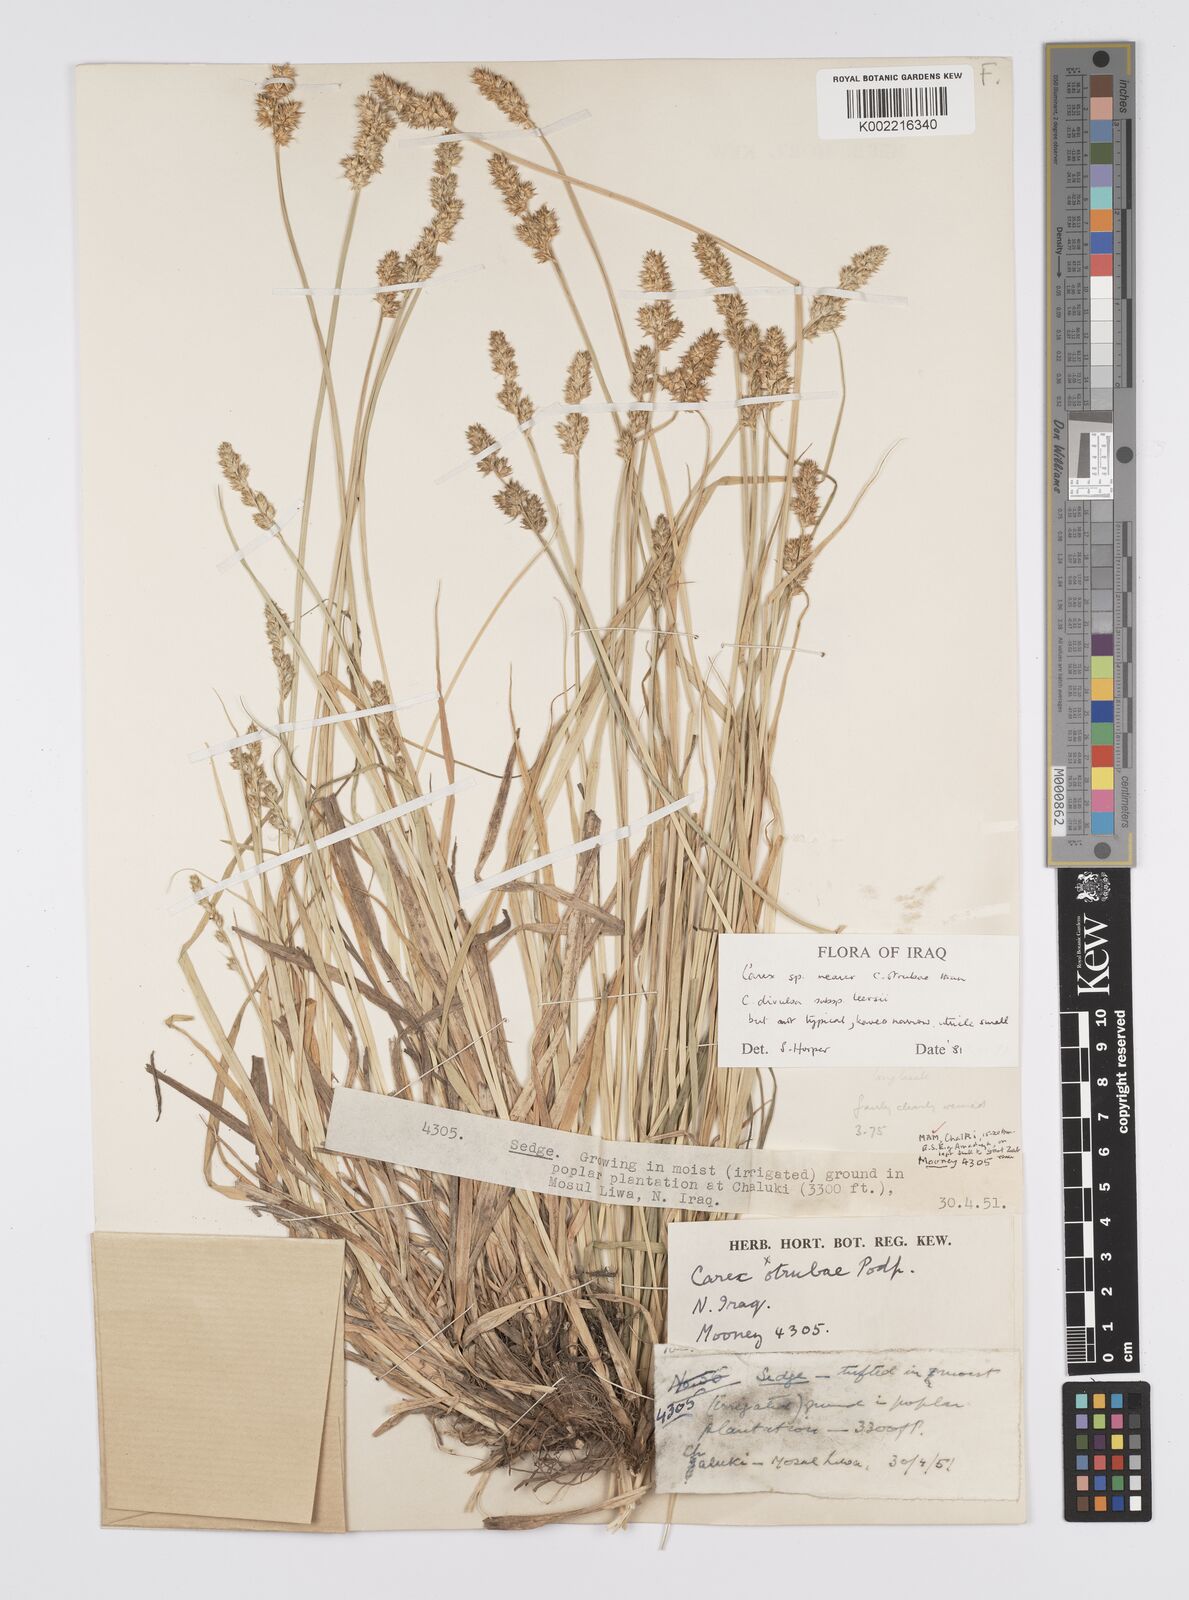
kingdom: Plantae
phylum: Tracheophyta
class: Liliopsida
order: Poales
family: Cyperaceae
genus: Carex
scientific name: Carex otrubae
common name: False fox-sedge
